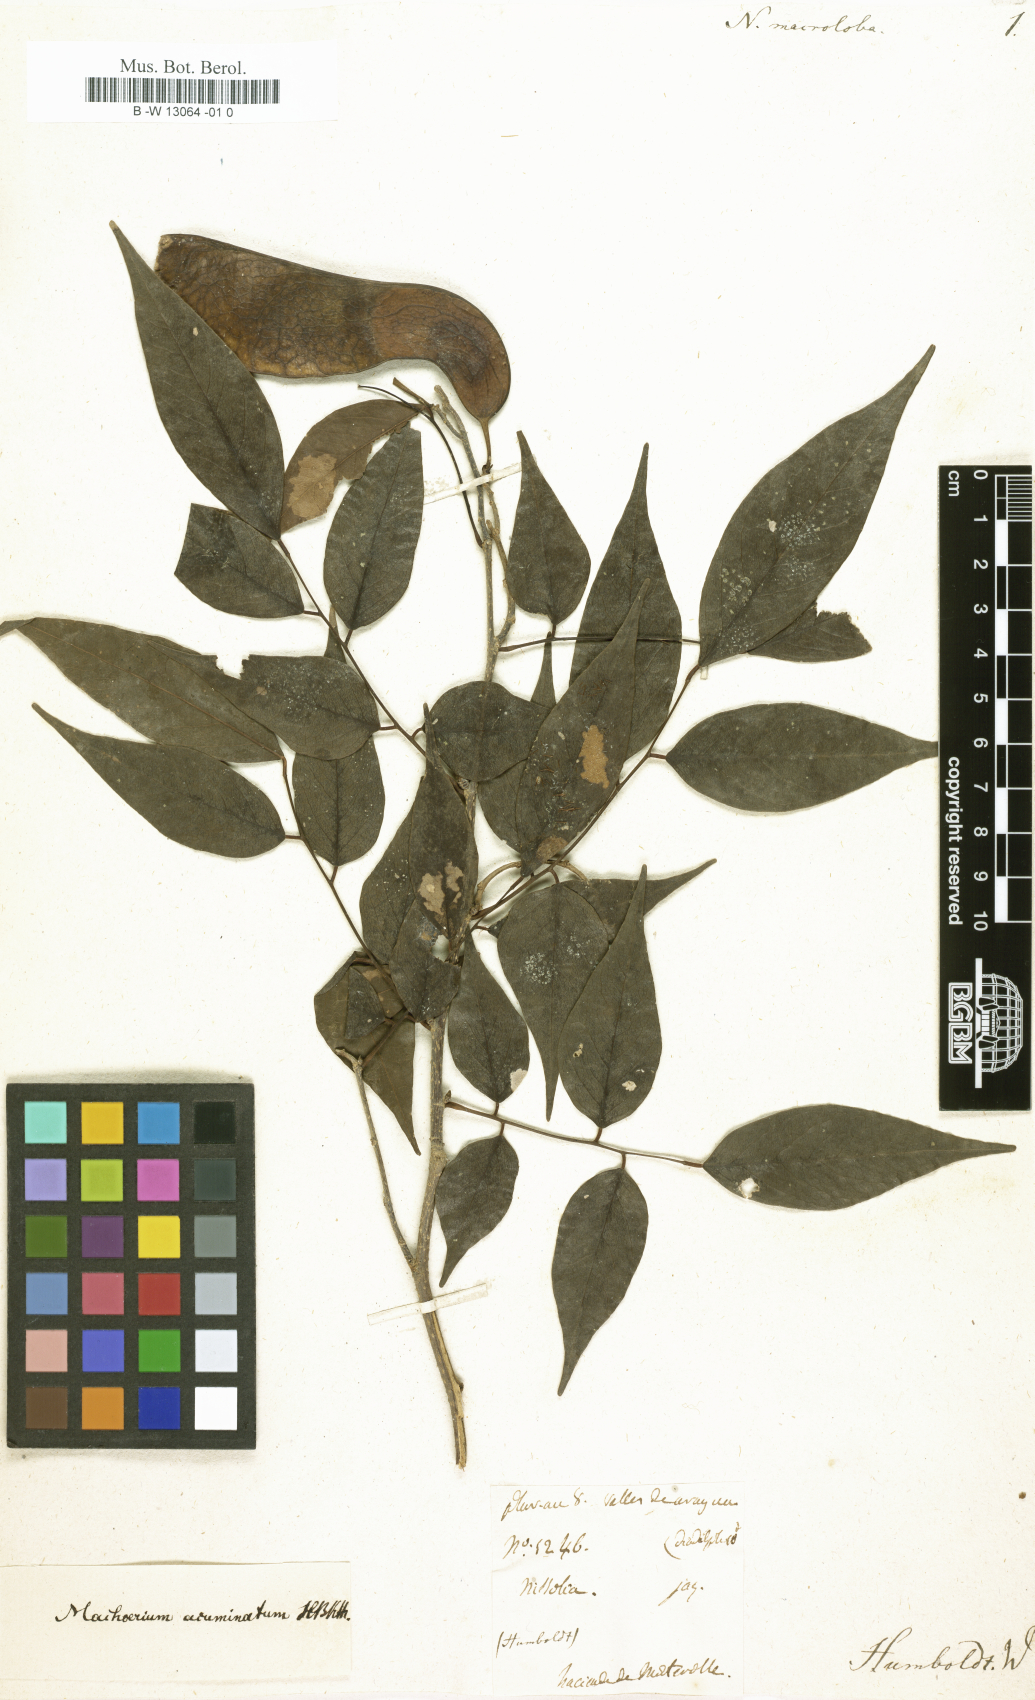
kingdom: Plantae
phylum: Tracheophyta
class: Magnoliopsida
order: Fabales
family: Fabaceae
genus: Nissolia
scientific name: Nissolia
